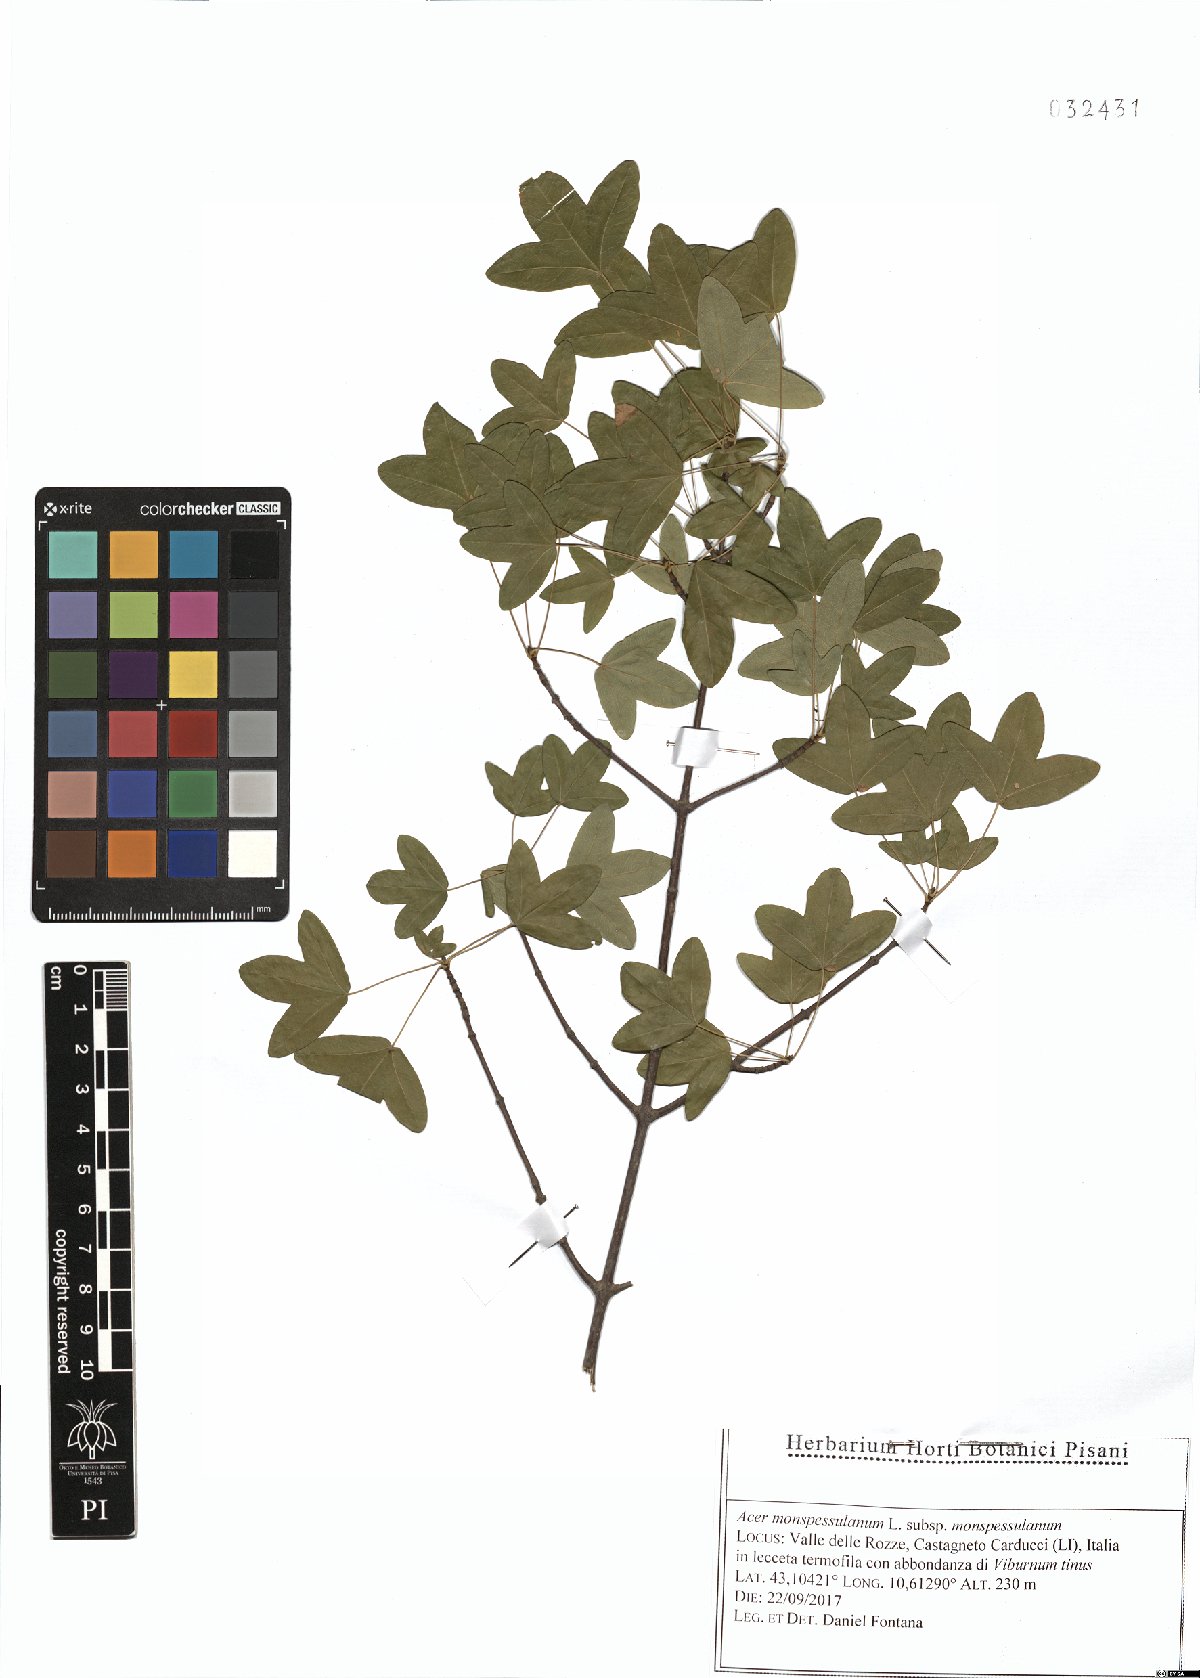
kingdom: Plantae
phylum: Tracheophyta
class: Magnoliopsida
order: Sapindales
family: Sapindaceae
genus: Acer
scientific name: Acer monspessulanum
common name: Montpellier maple
